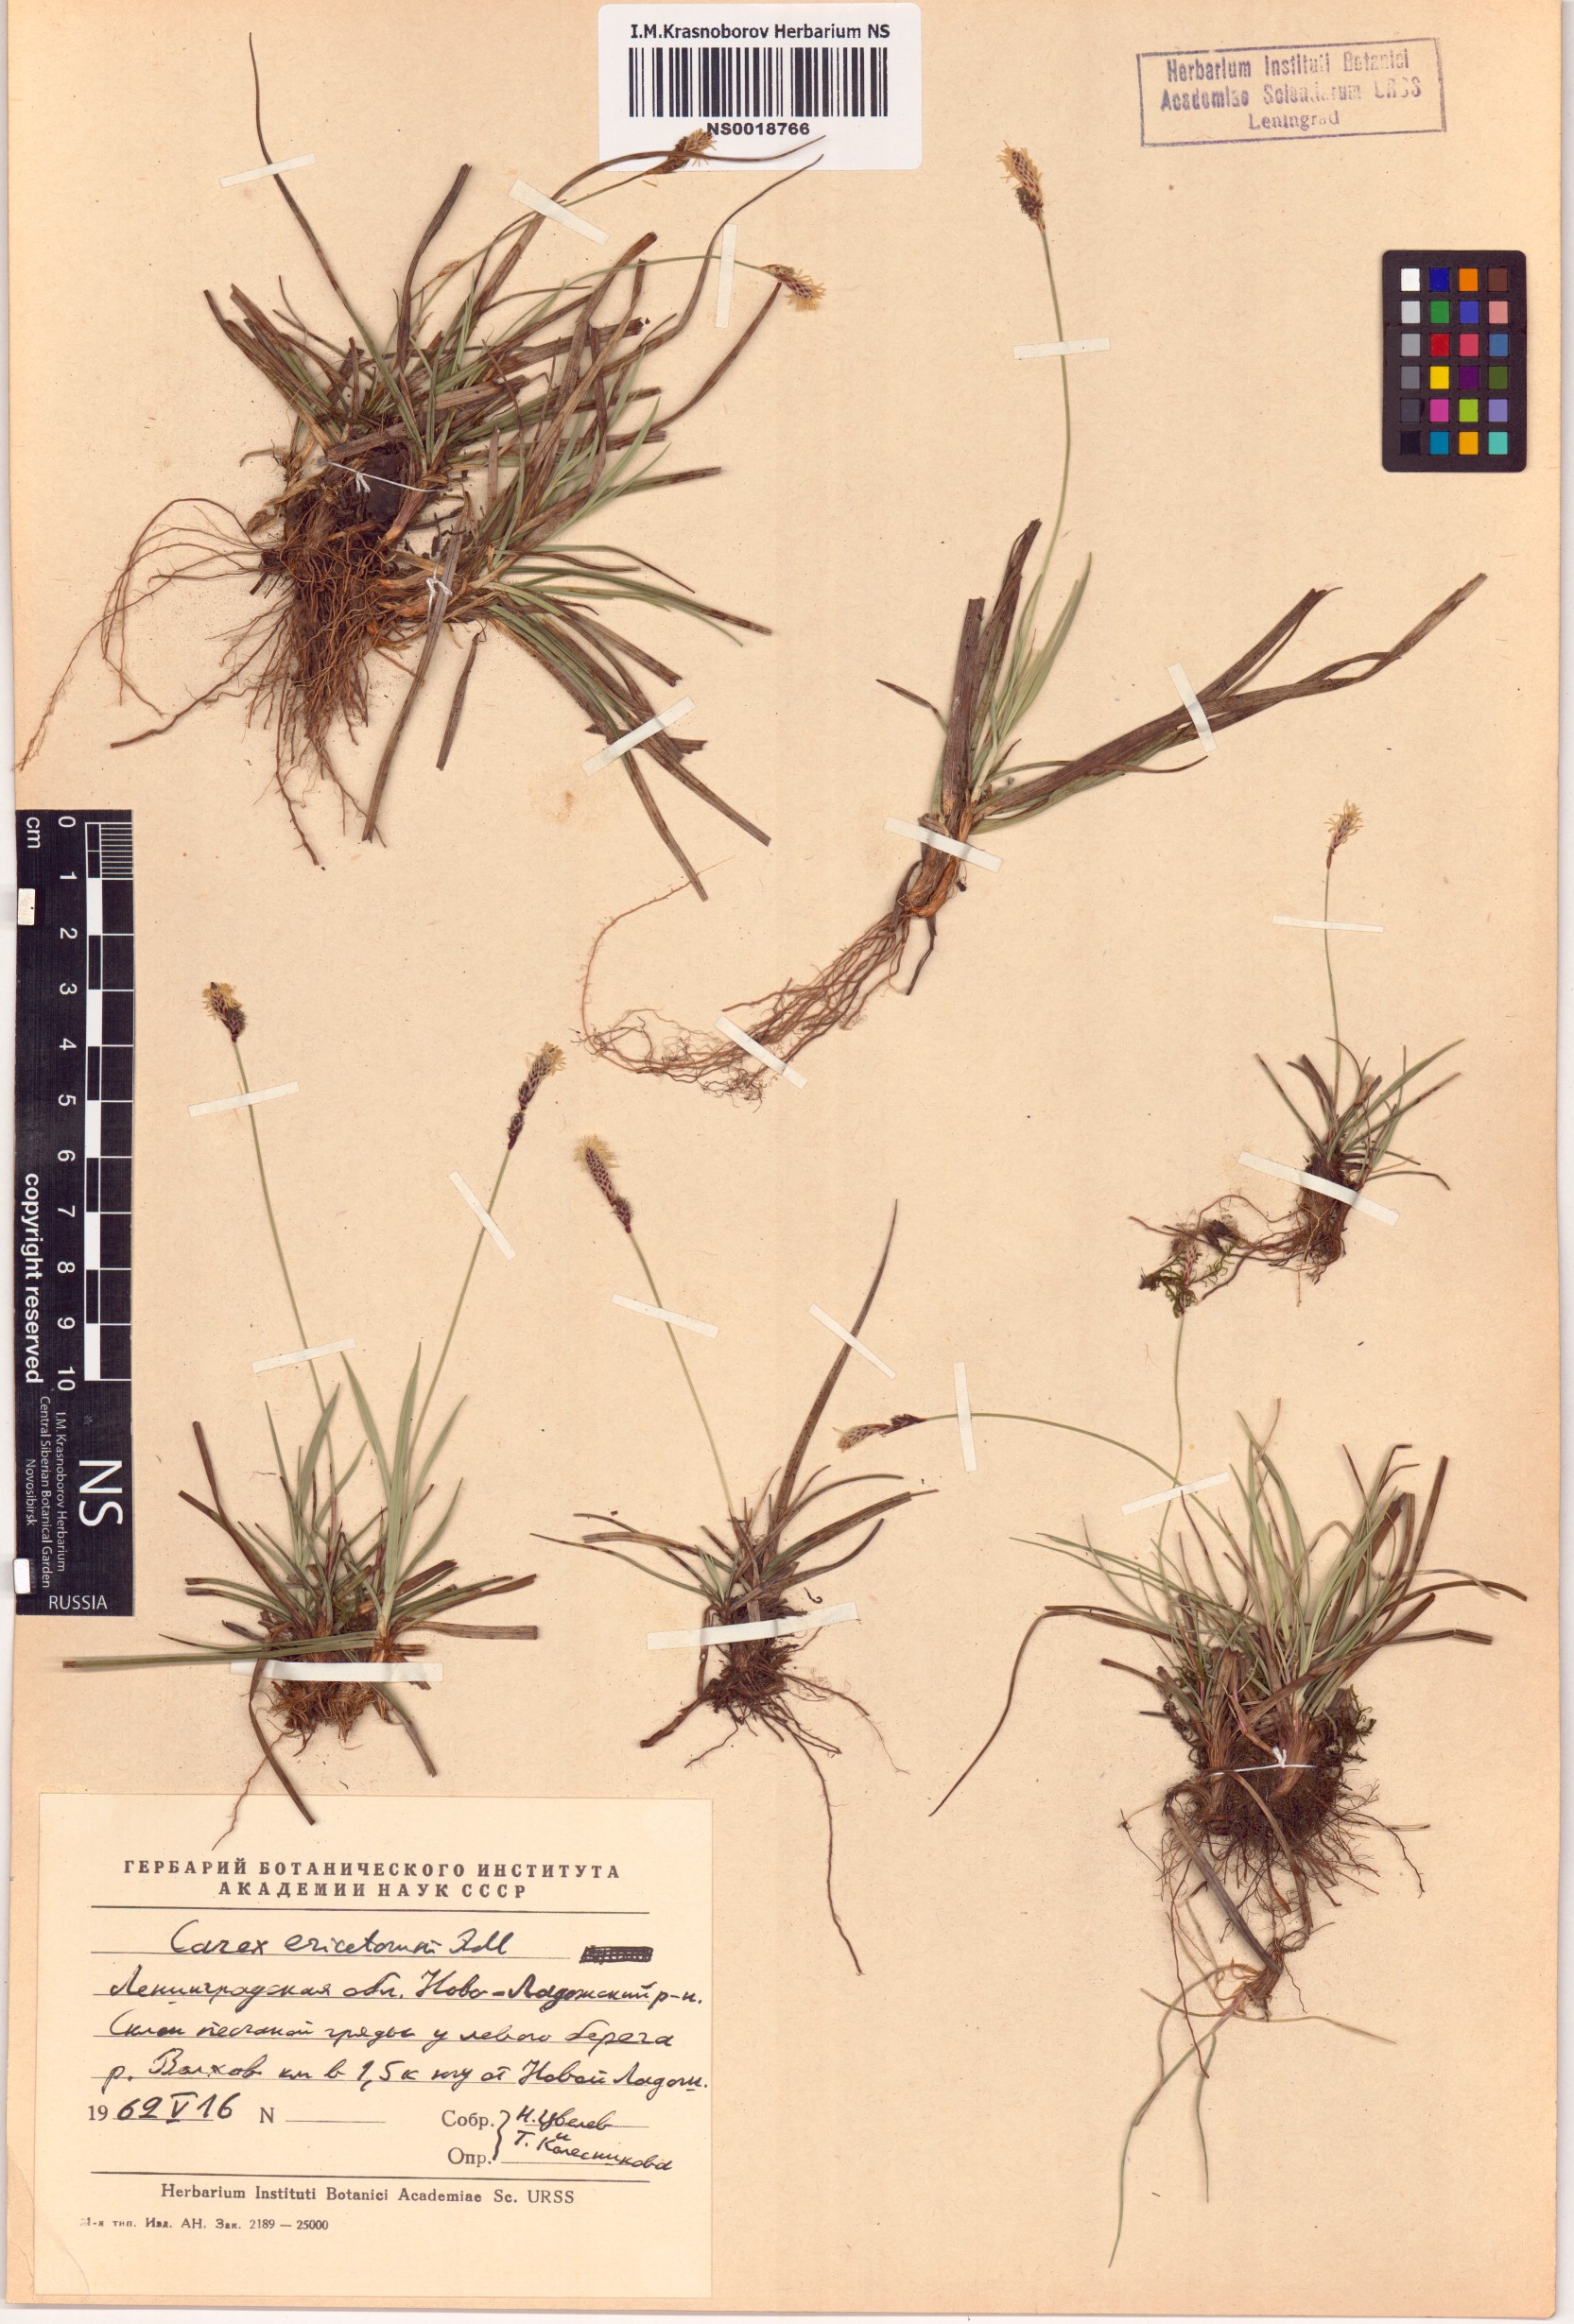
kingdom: Plantae
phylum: Tracheophyta
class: Liliopsida
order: Poales
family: Cyperaceae
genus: Carex
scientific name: Carex ericetorum
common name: Rare spring-sedge
